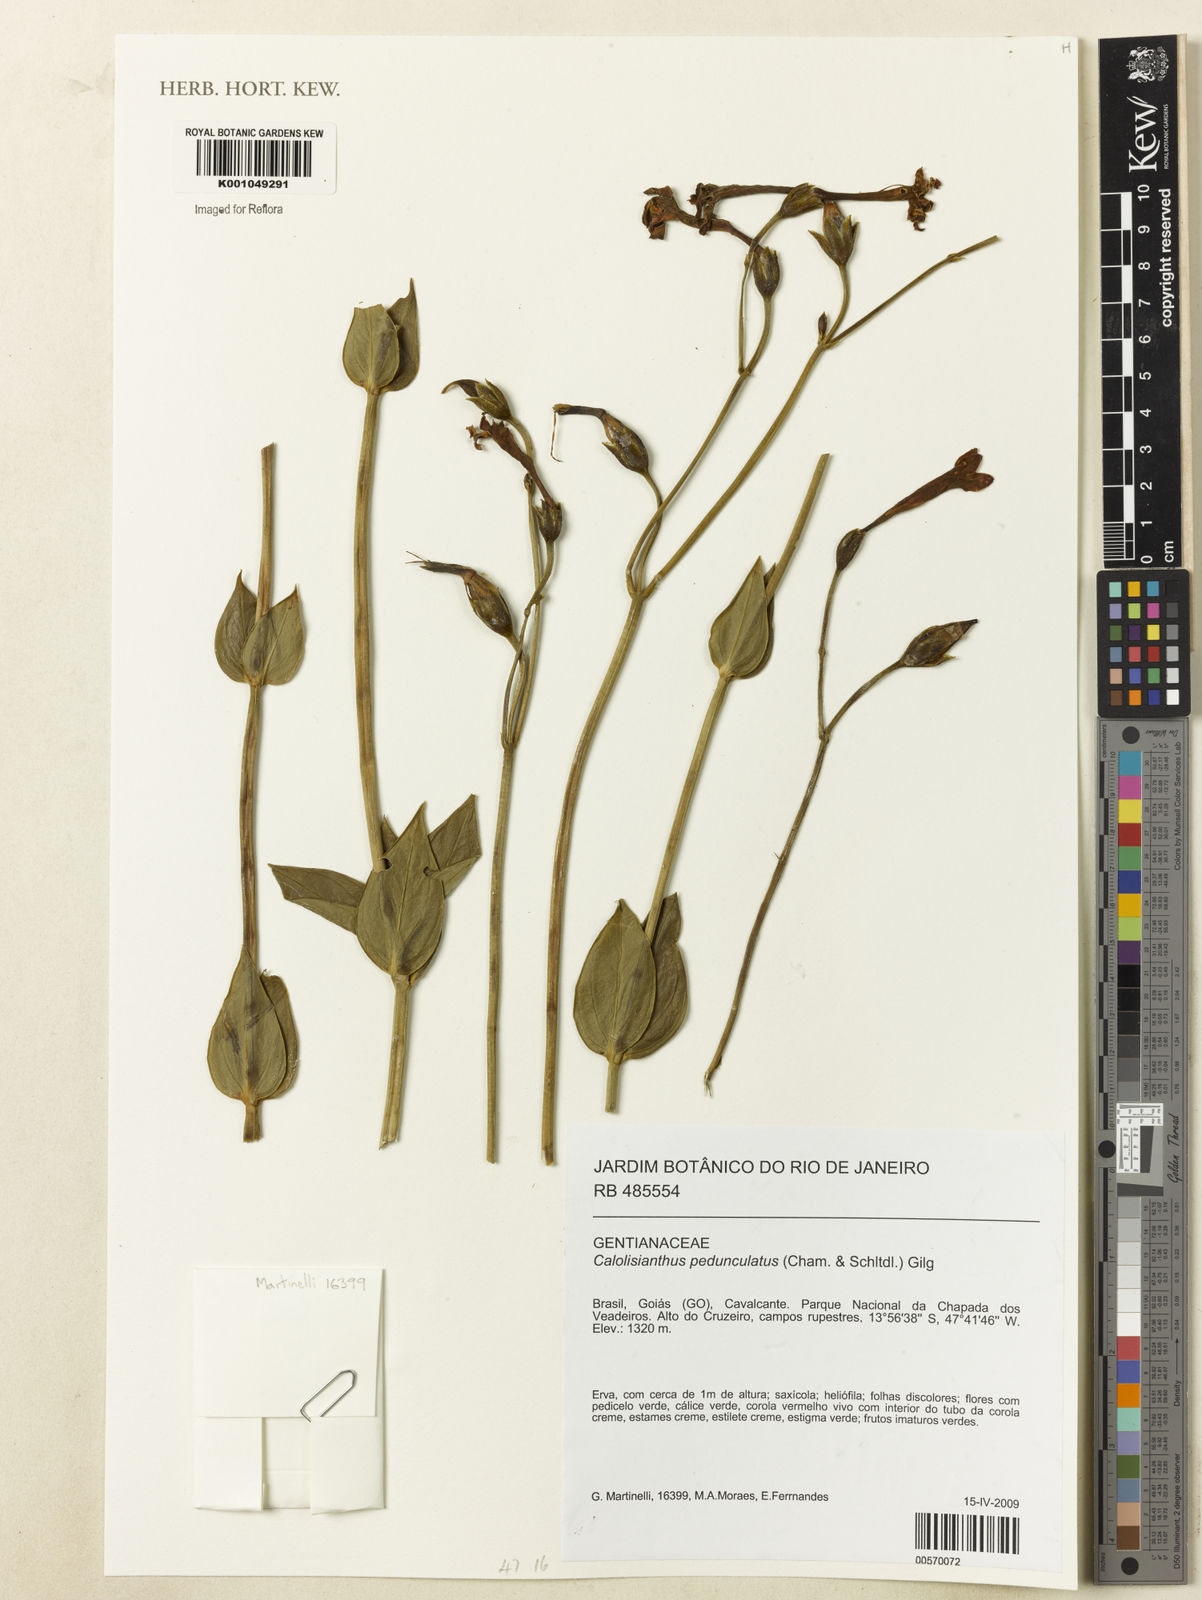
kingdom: Plantae
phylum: Tracheophyta
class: Magnoliopsida
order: Gentianales
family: Gentianaceae
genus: Calolisianthus
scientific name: Calolisianthus pedunculatus
